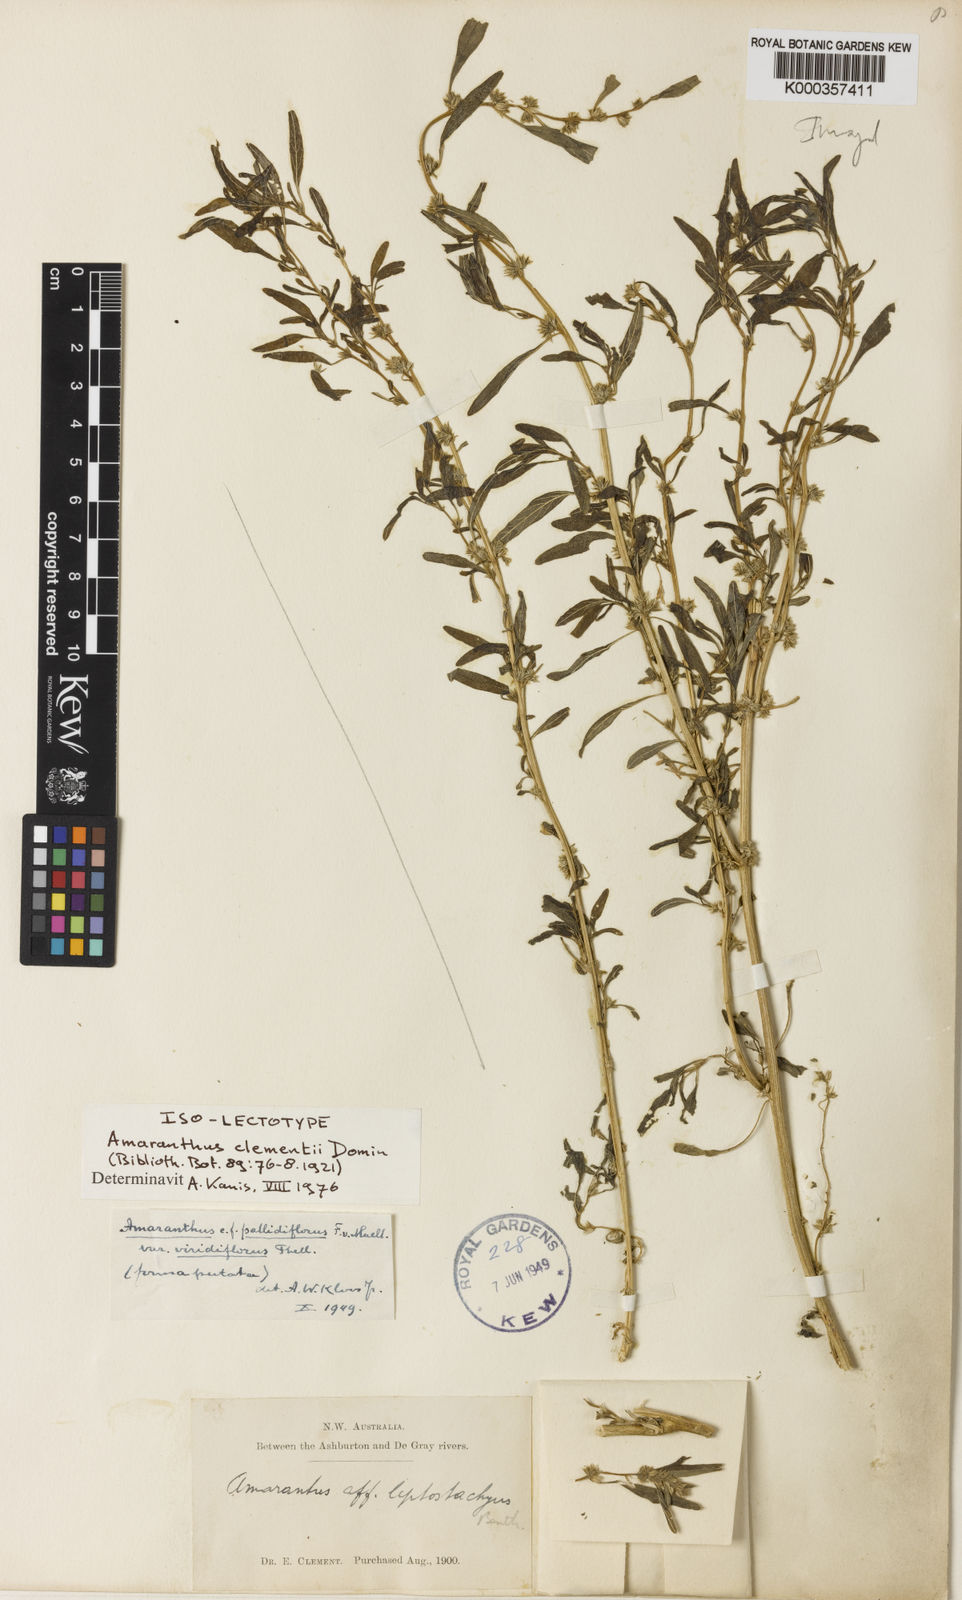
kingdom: Plantae
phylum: Tracheophyta
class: Magnoliopsida
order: Caryophyllales
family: Amaranthaceae
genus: Amaranthus
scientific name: Amaranthus clementii
